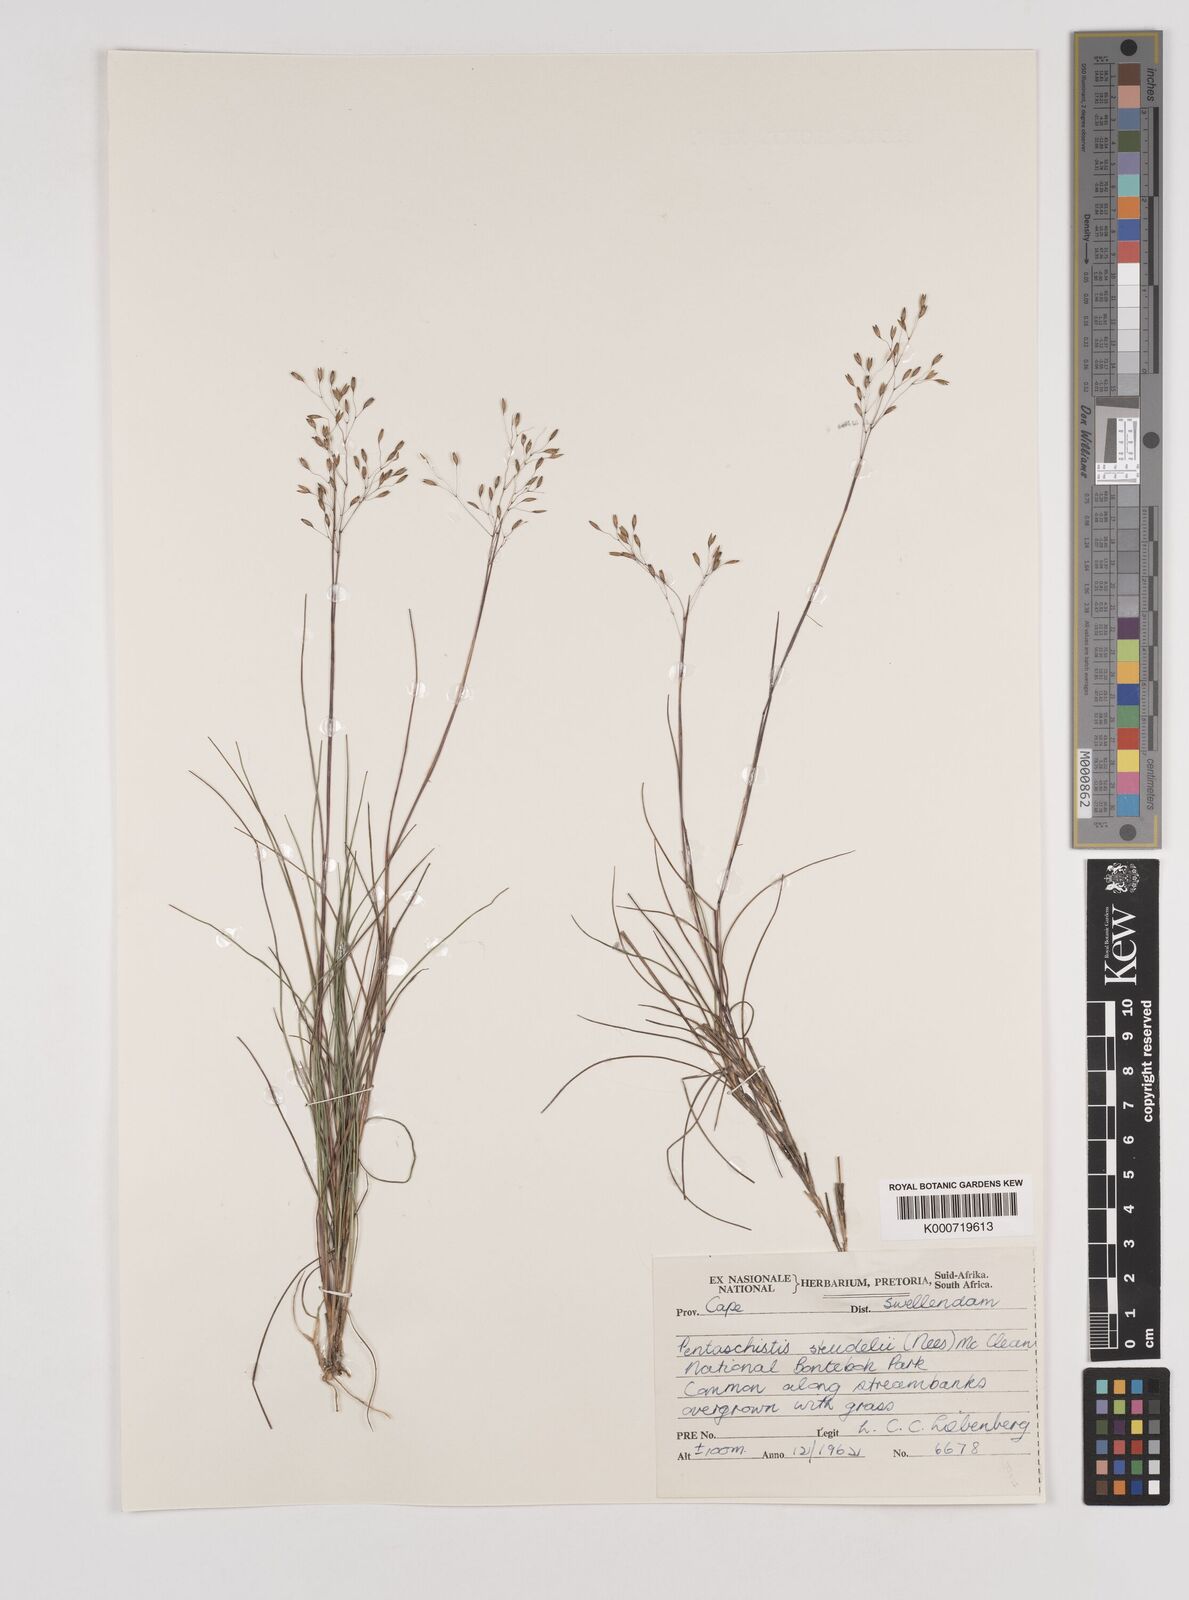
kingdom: Plantae
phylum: Tracheophyta
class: Liliopsida
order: Poales
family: Poaceae
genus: Pentameris
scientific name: Pentameris malouinensis
